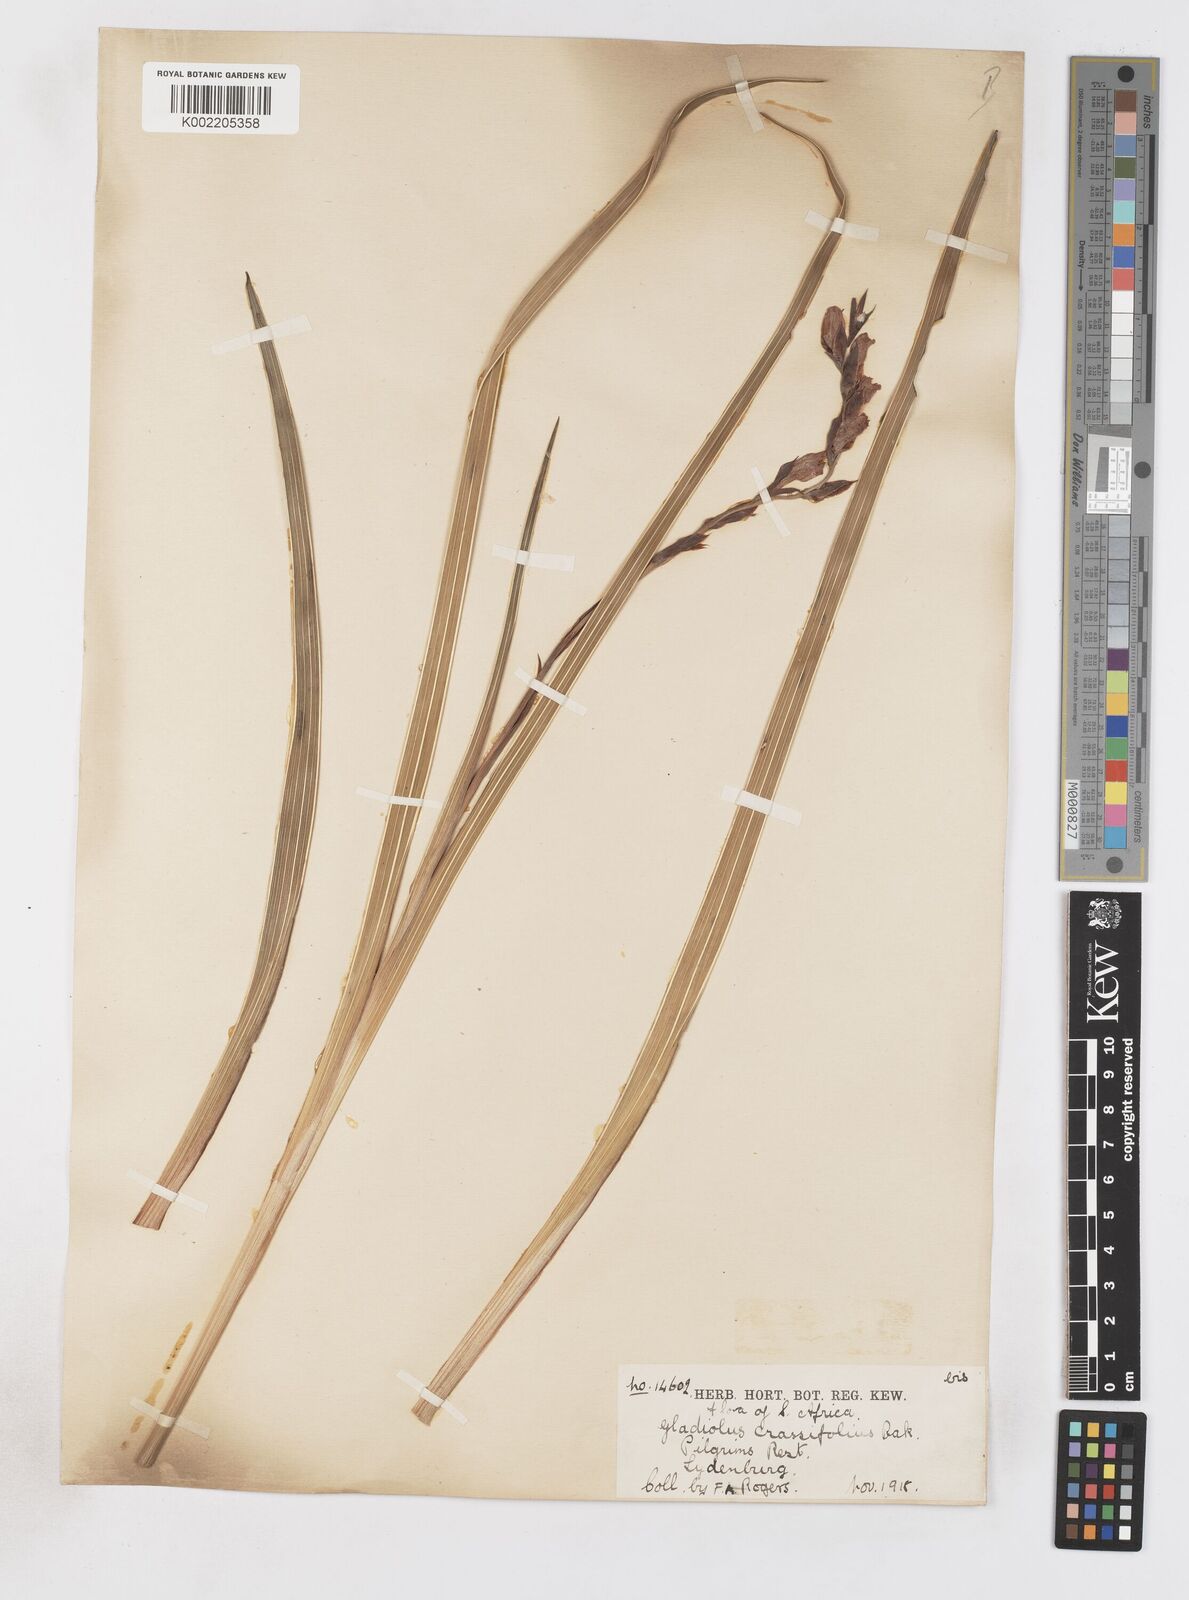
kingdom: Plantae
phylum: Tracheophyta
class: Liliopsida
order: Asparagales
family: Iridaceae
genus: Gladiolus
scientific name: Gladiolus crassifolius
